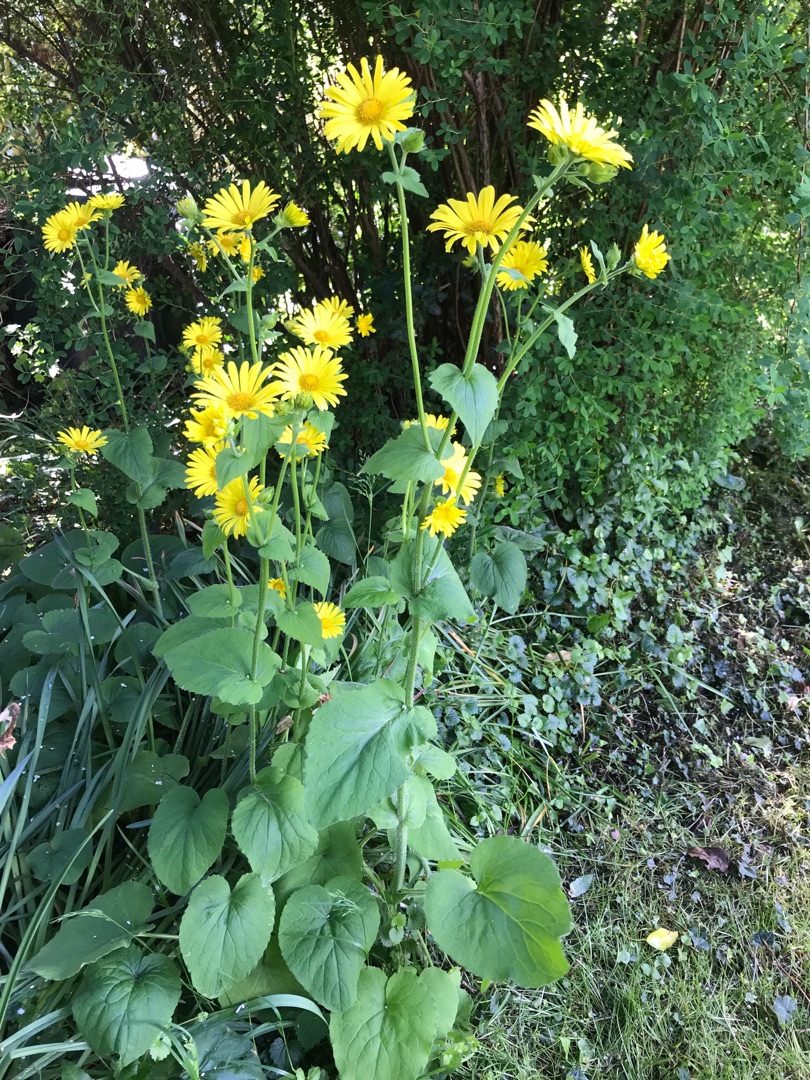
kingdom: Plantae
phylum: Tracheophyta
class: Magnoliopsida
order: Asterales
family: Asteraceae
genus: Doronicum
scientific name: Doronicum pardalianches
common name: Hjertebladet gemserod
